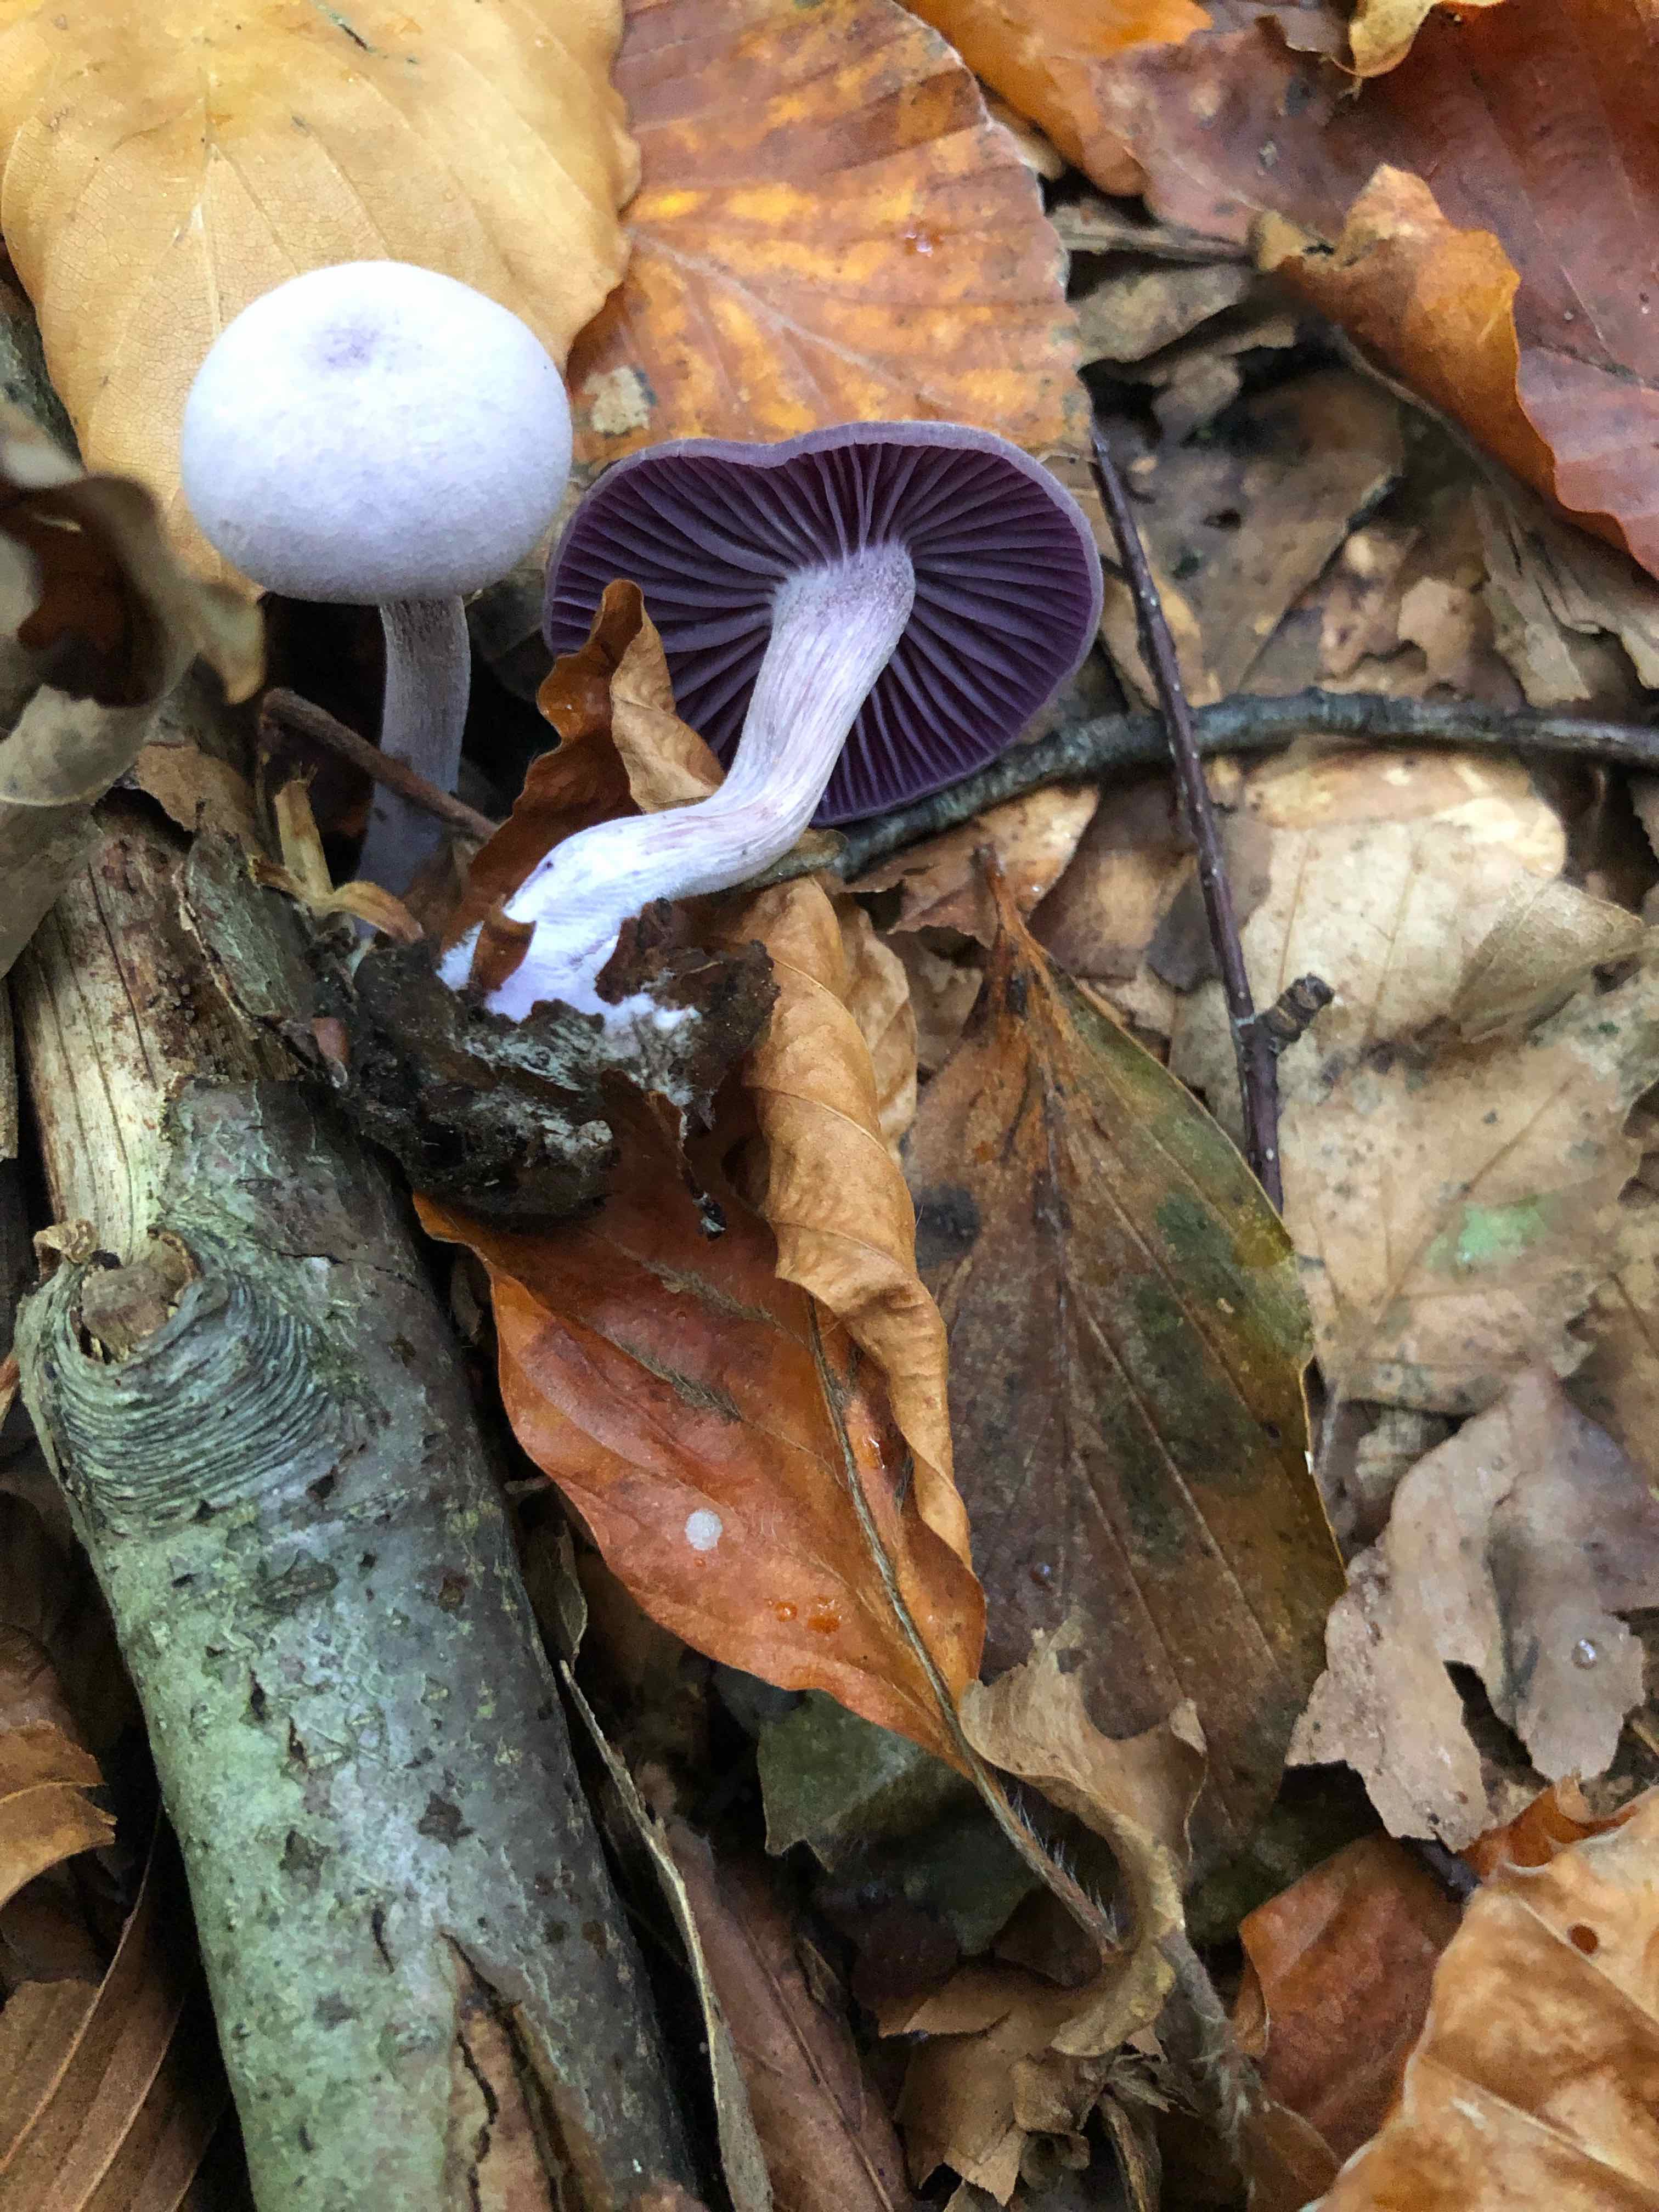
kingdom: Fungi
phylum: Basidiomycota
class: Agaricomycetes
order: Agaricales
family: Hydnangiaceae
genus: Laccaria
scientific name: Laccaria amethystina
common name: violet ametysthat
